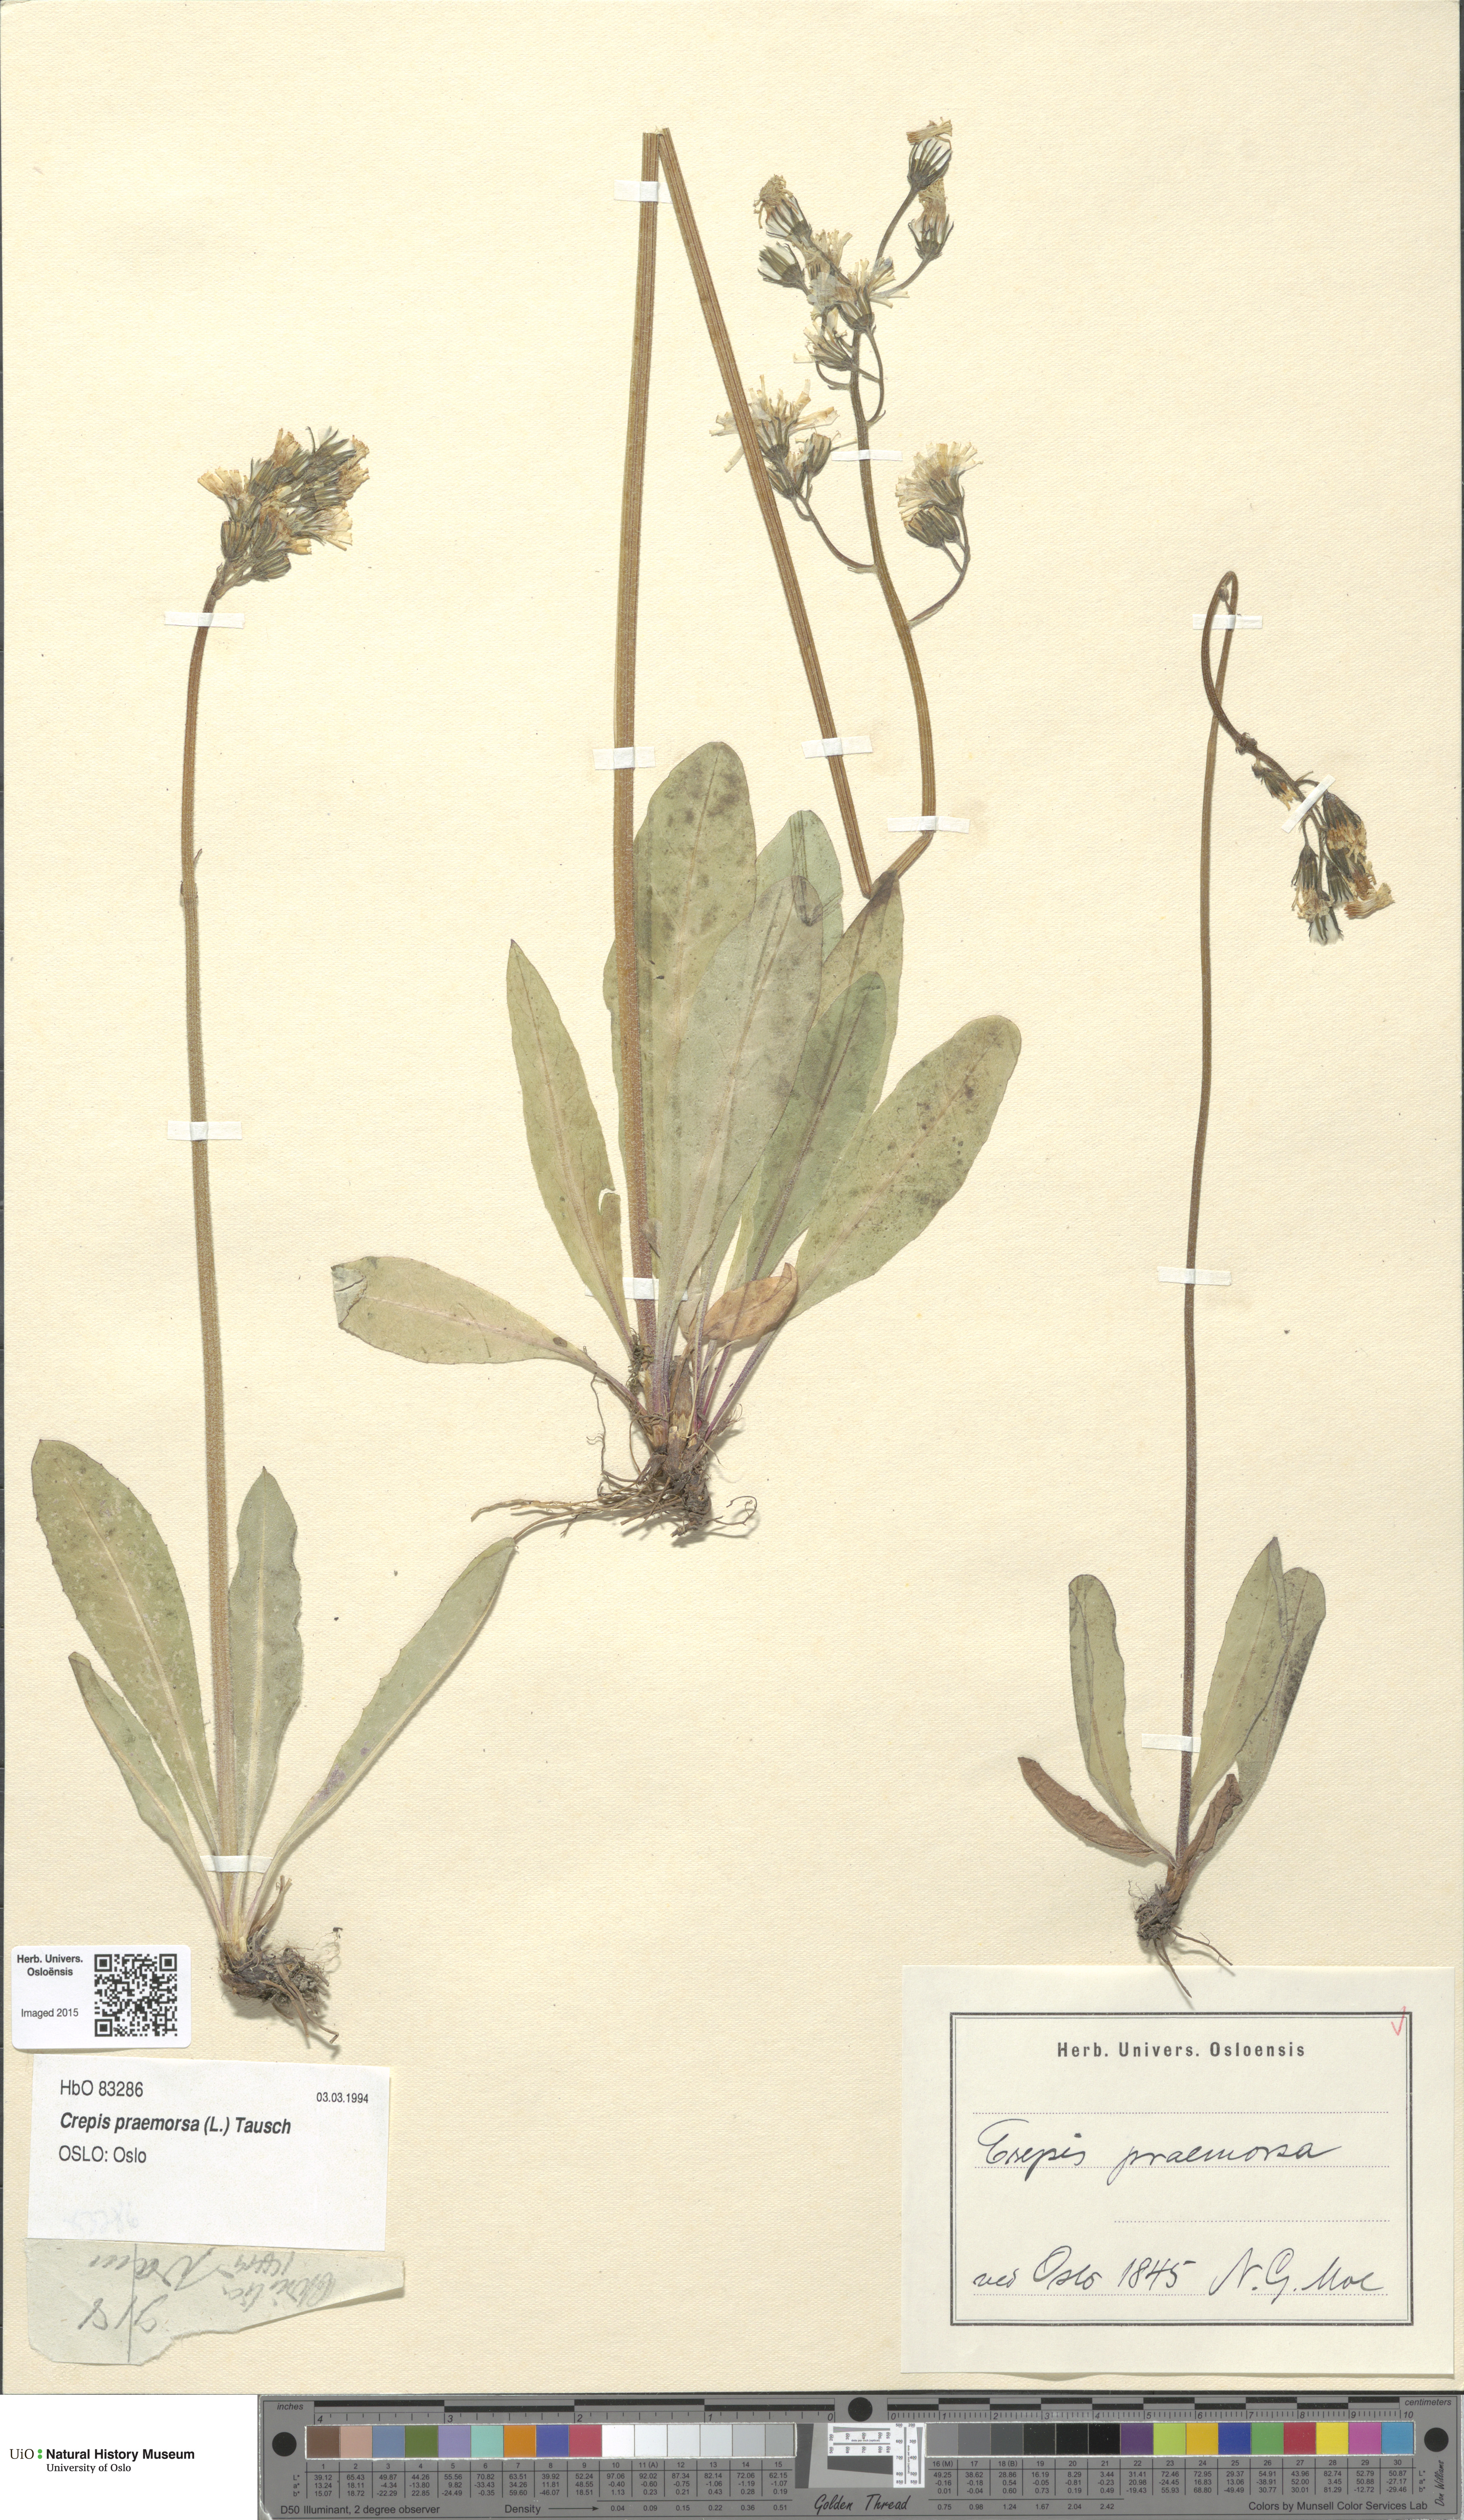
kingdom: Plantae
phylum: Tracheophyta
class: Magnoliopsida
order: Asterales
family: Asteraceae
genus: Crepis
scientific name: Crepis praemorsa
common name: Leafless hawk's-beard
